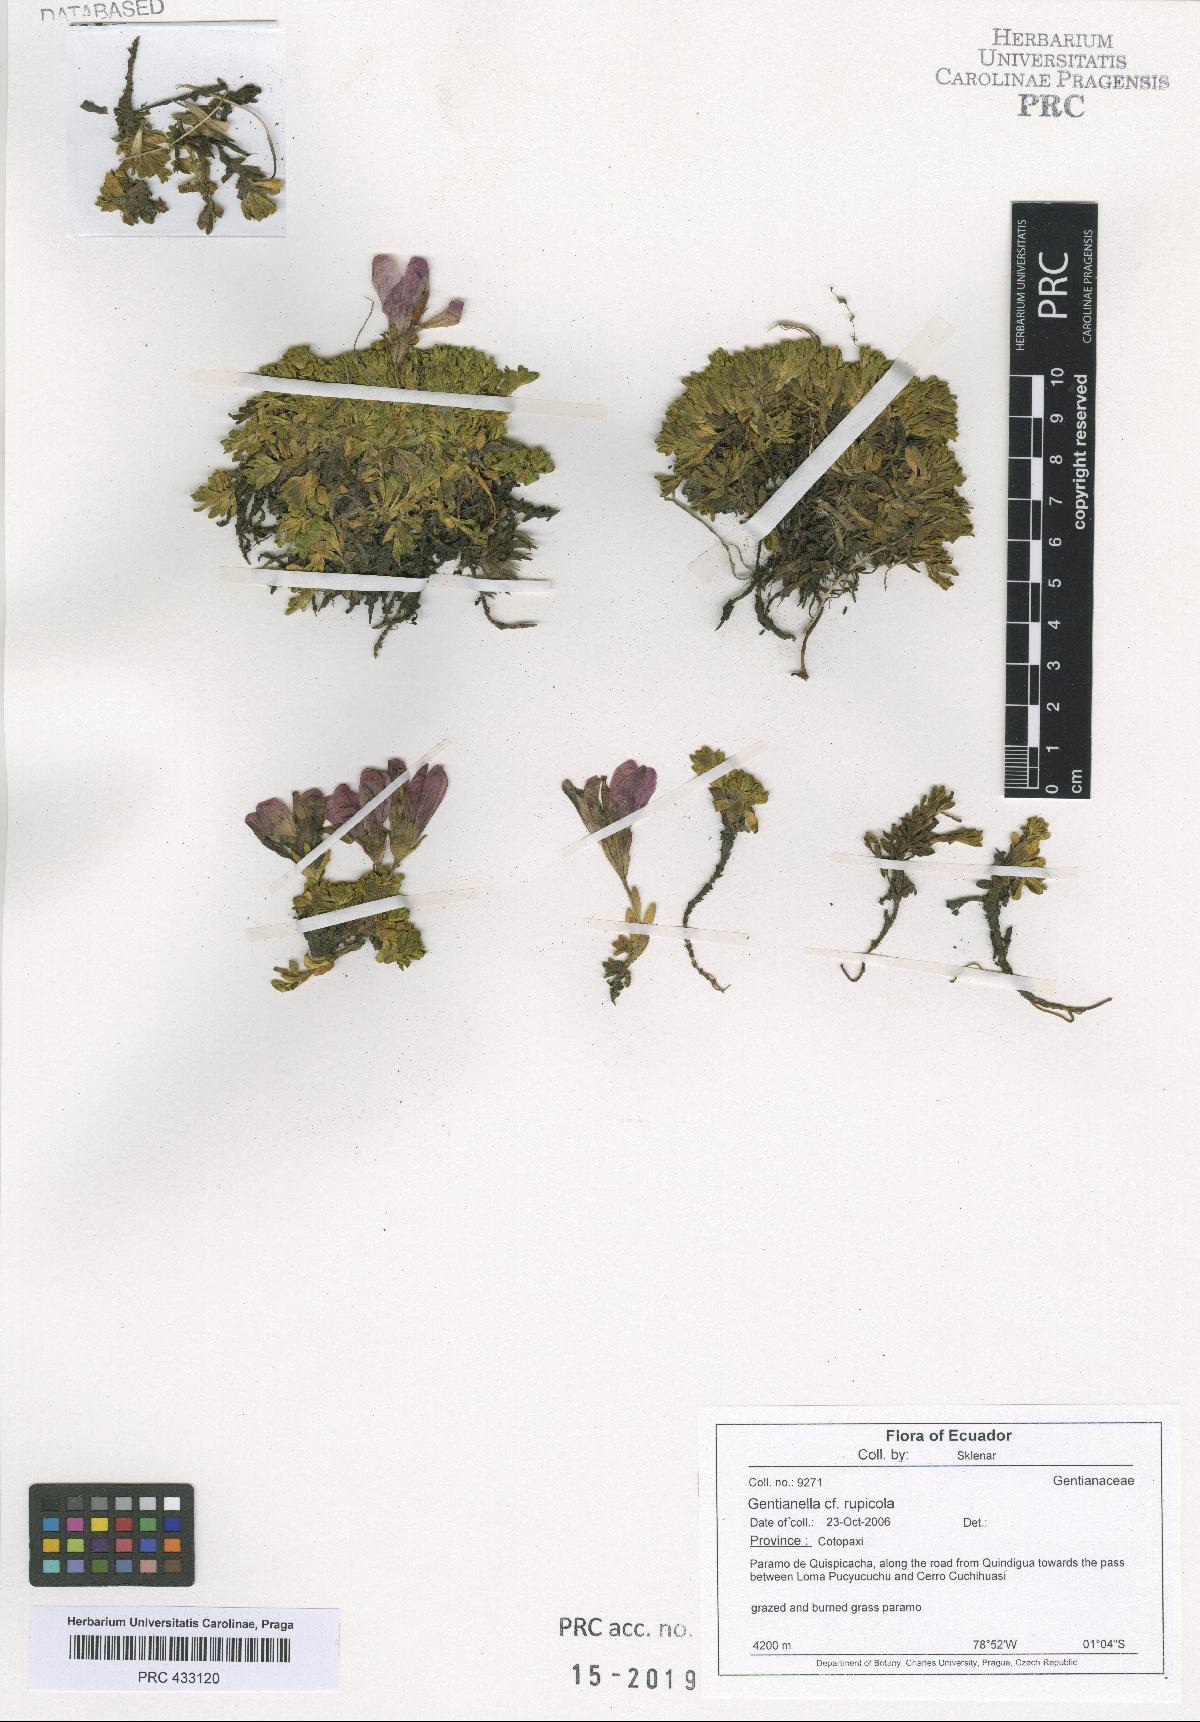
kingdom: Plantae
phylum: Tracheophyta
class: Magnoliopsida
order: Gentianales
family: Gentianaceae
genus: Gentianella
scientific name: Gentianella rupicola
